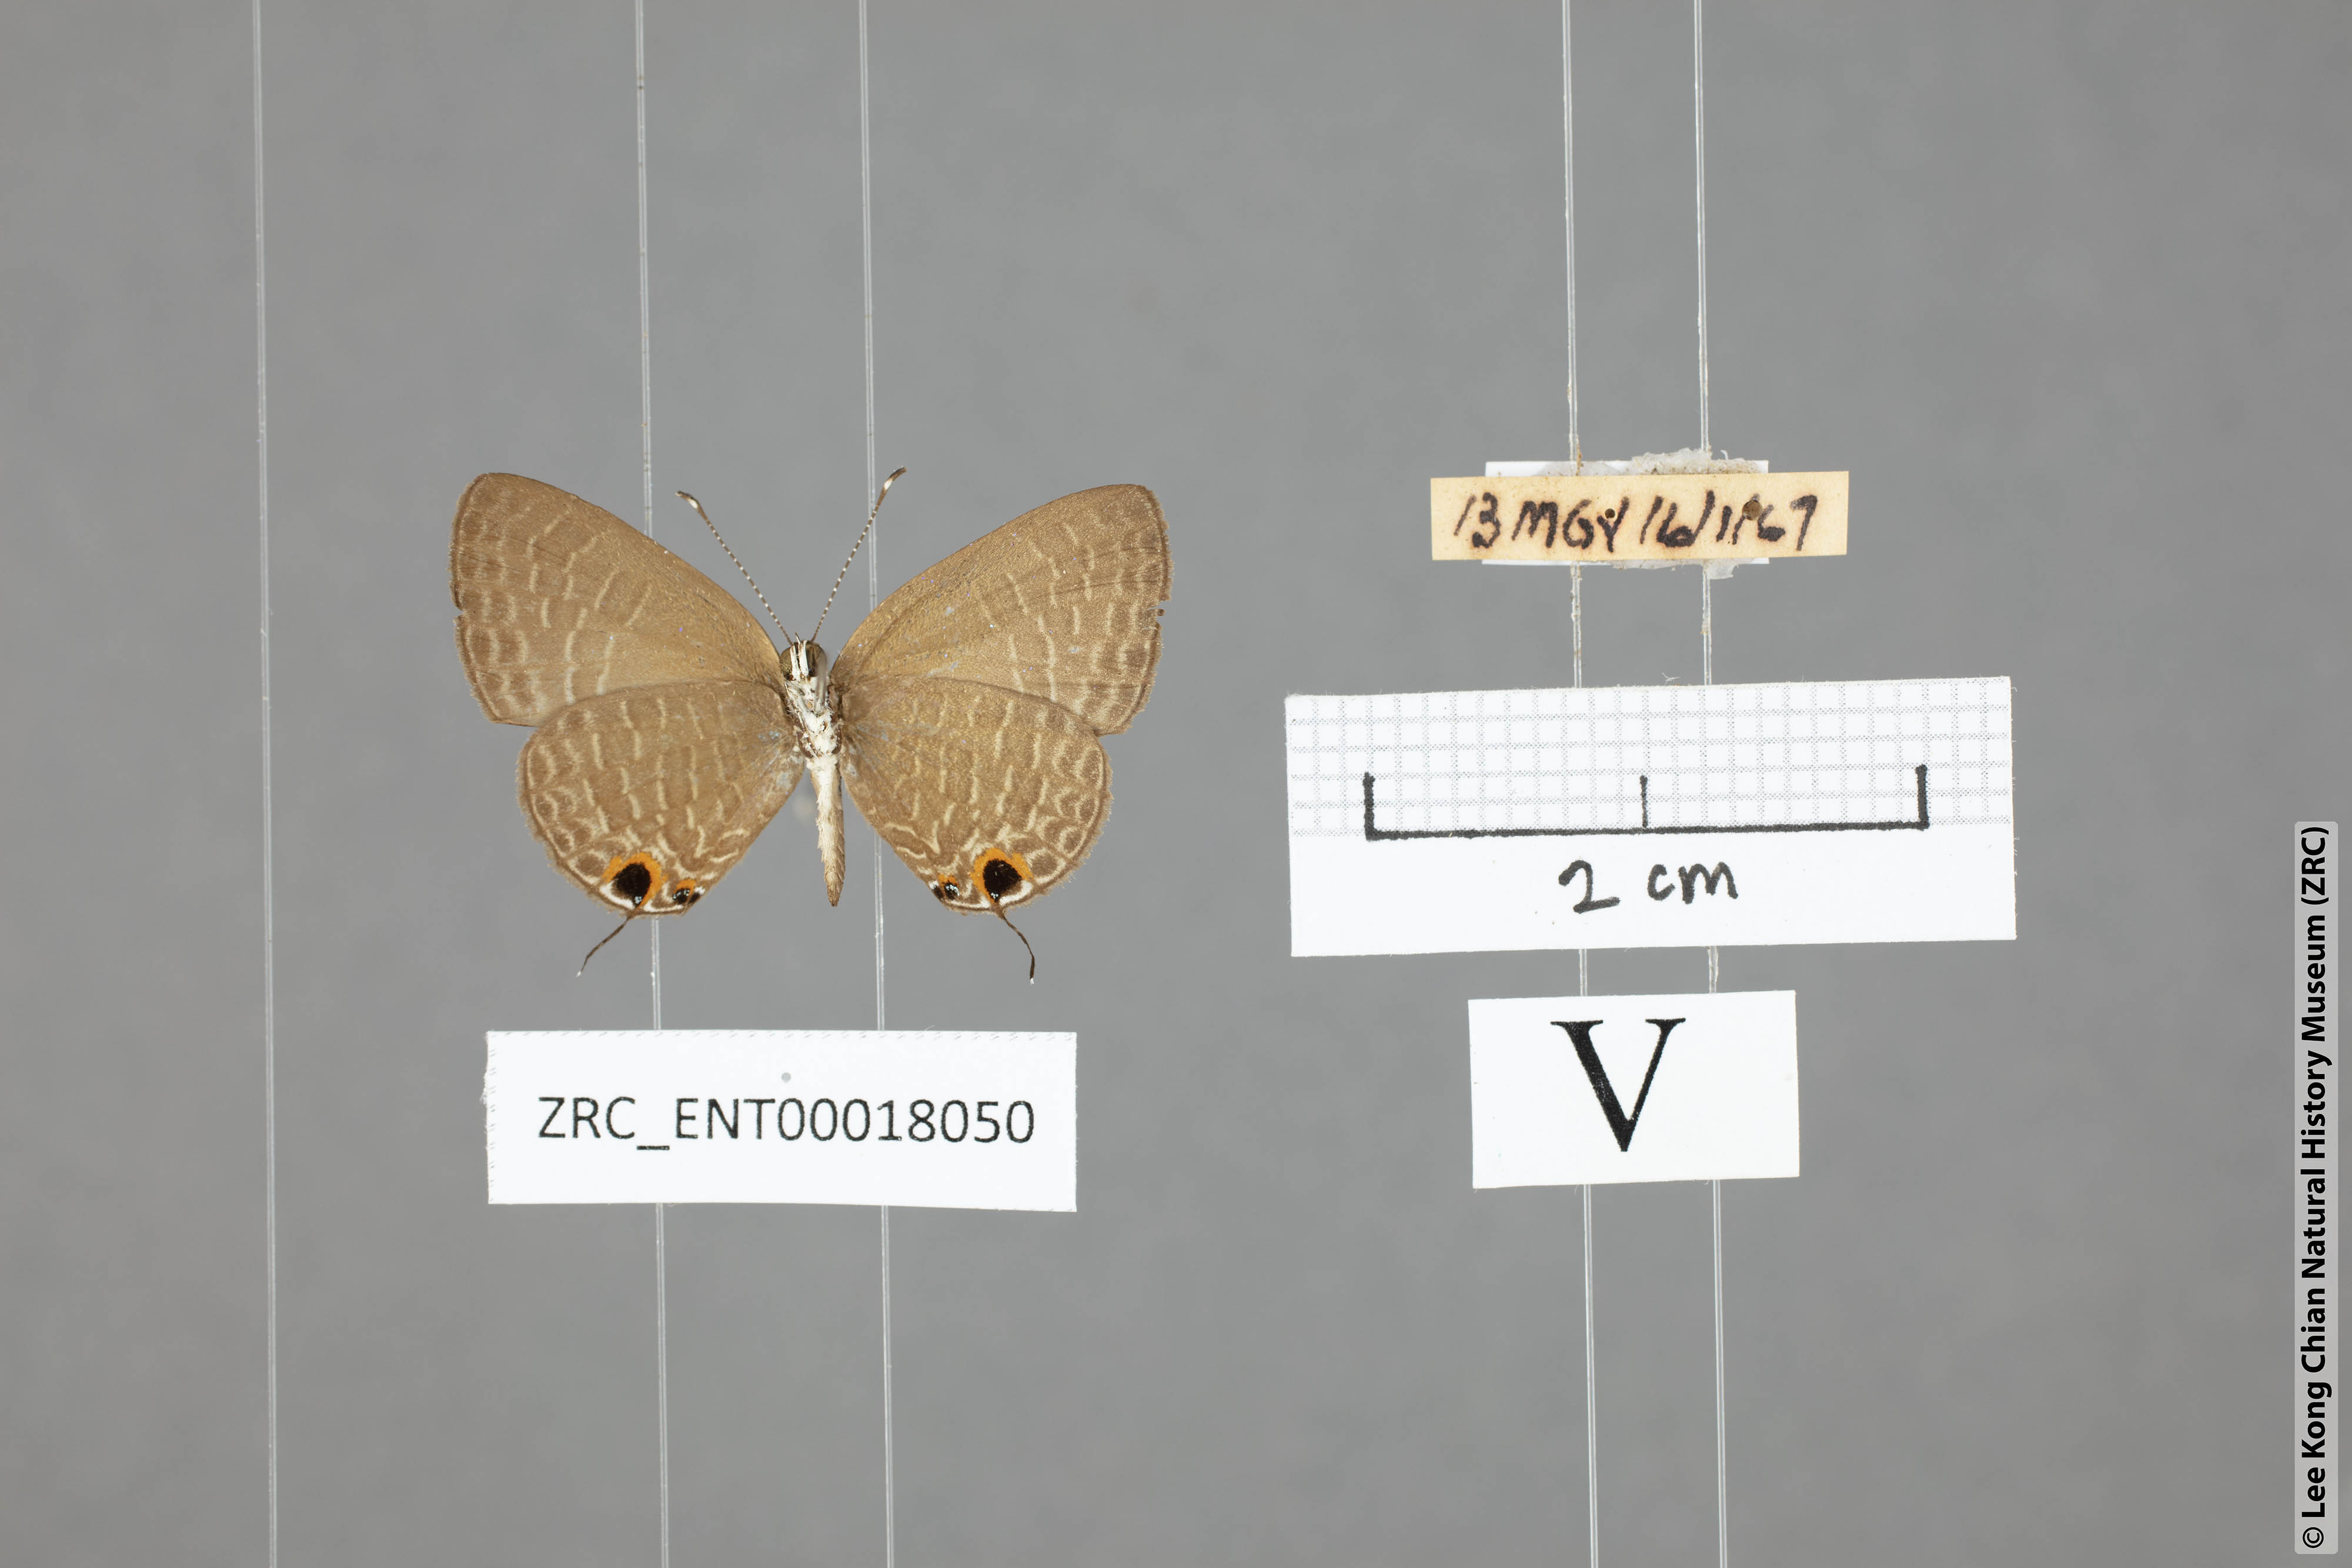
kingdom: Animalia
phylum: Arthropoda
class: Insecta
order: Lepidoptera
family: Lycaenidae
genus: Jamides
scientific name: Jamides bochus
